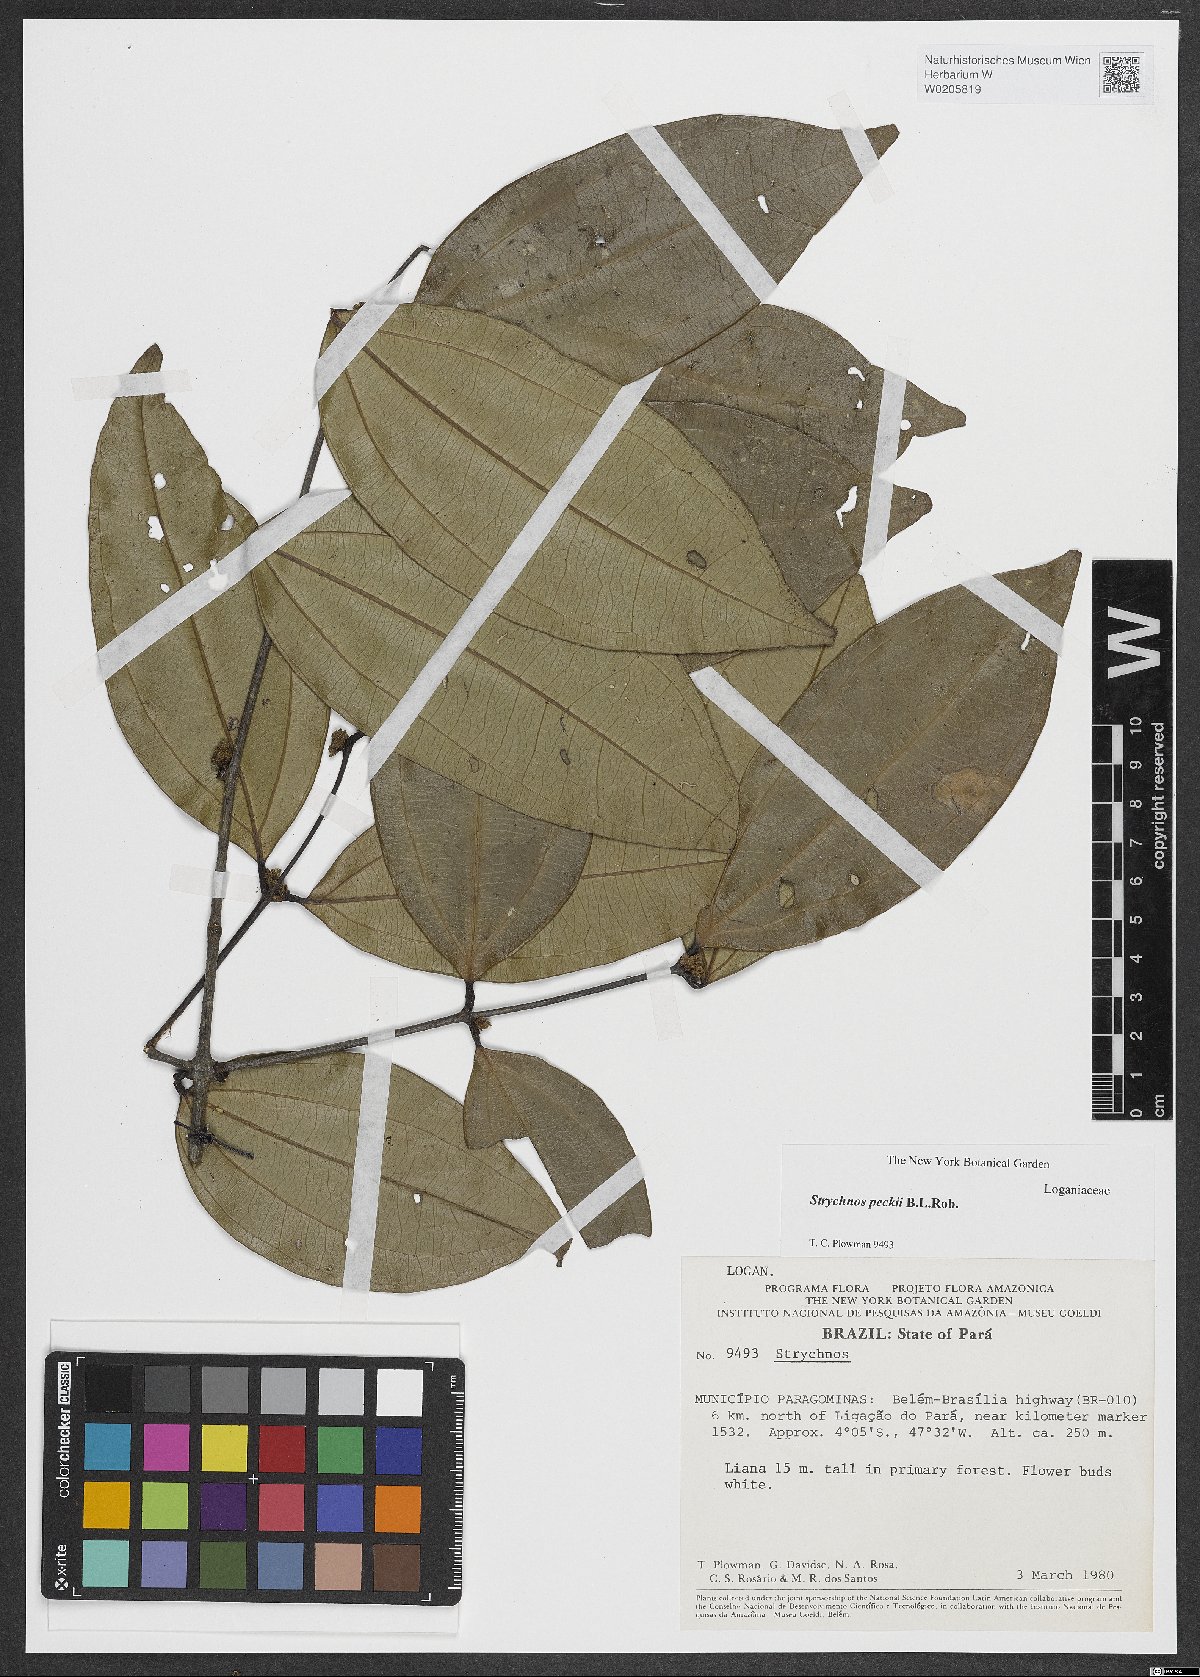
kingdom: Plantae
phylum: Tracheophyta
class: Magnoliopsida
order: Gentianales
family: Loganiaceae
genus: Strychnos
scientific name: Strychnos peckii
